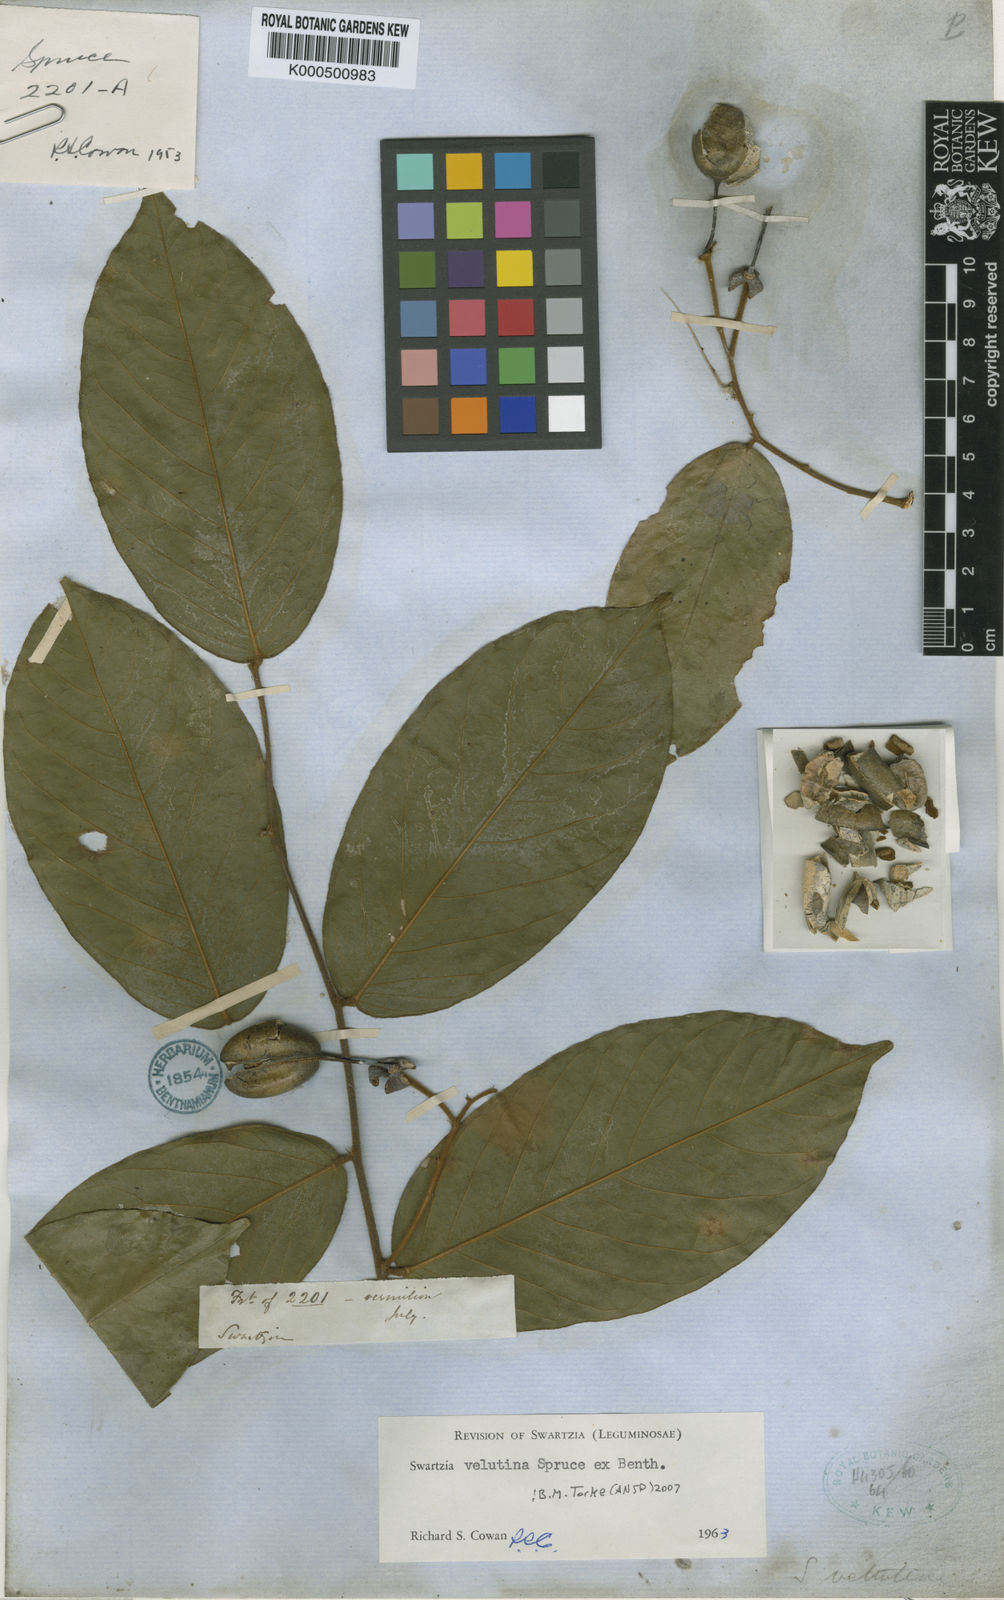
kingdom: Plantae
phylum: Tracheophyta
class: Magnoliopsida
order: Fabales
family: Fabaceae
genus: Swartzia
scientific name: Swartzia velutina
